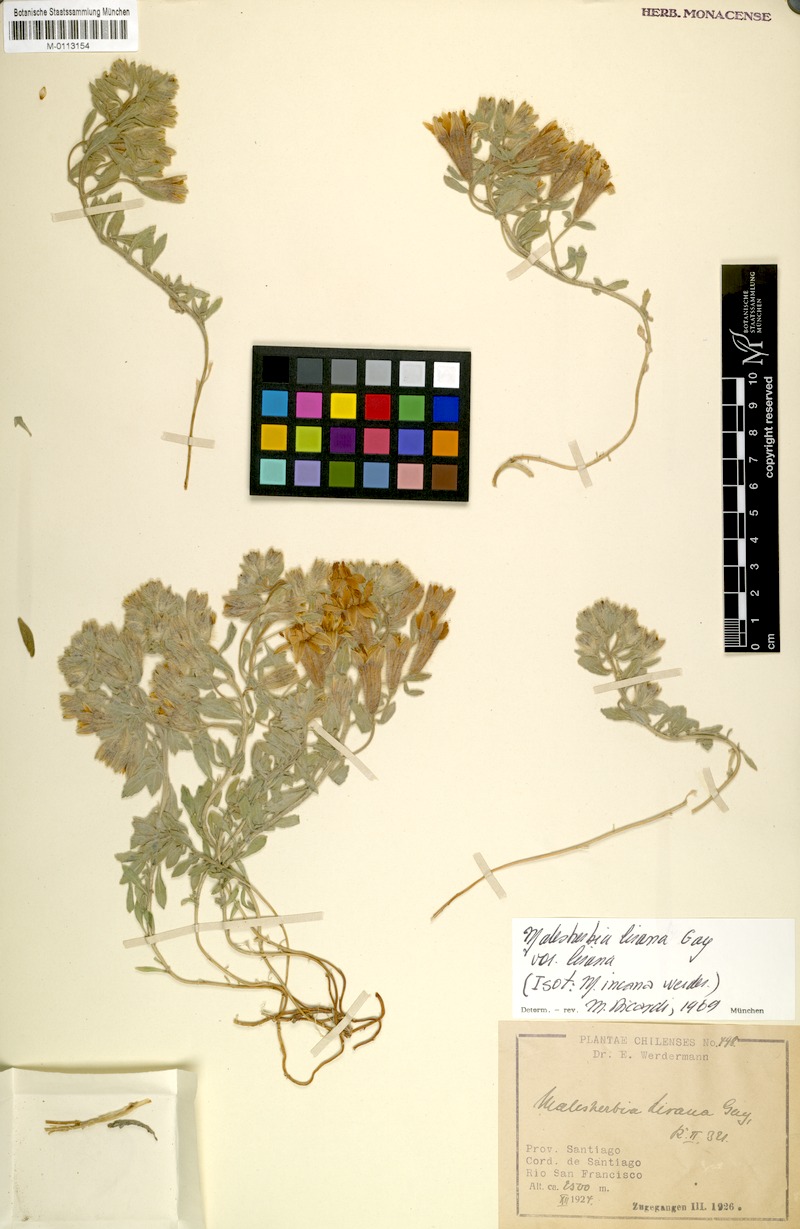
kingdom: Plantae
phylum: Tracheophyta
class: Magnoliopsida
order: Malpighiales
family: Malesherbiaceae
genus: Malesherbia
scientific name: Malesherbia lirana
